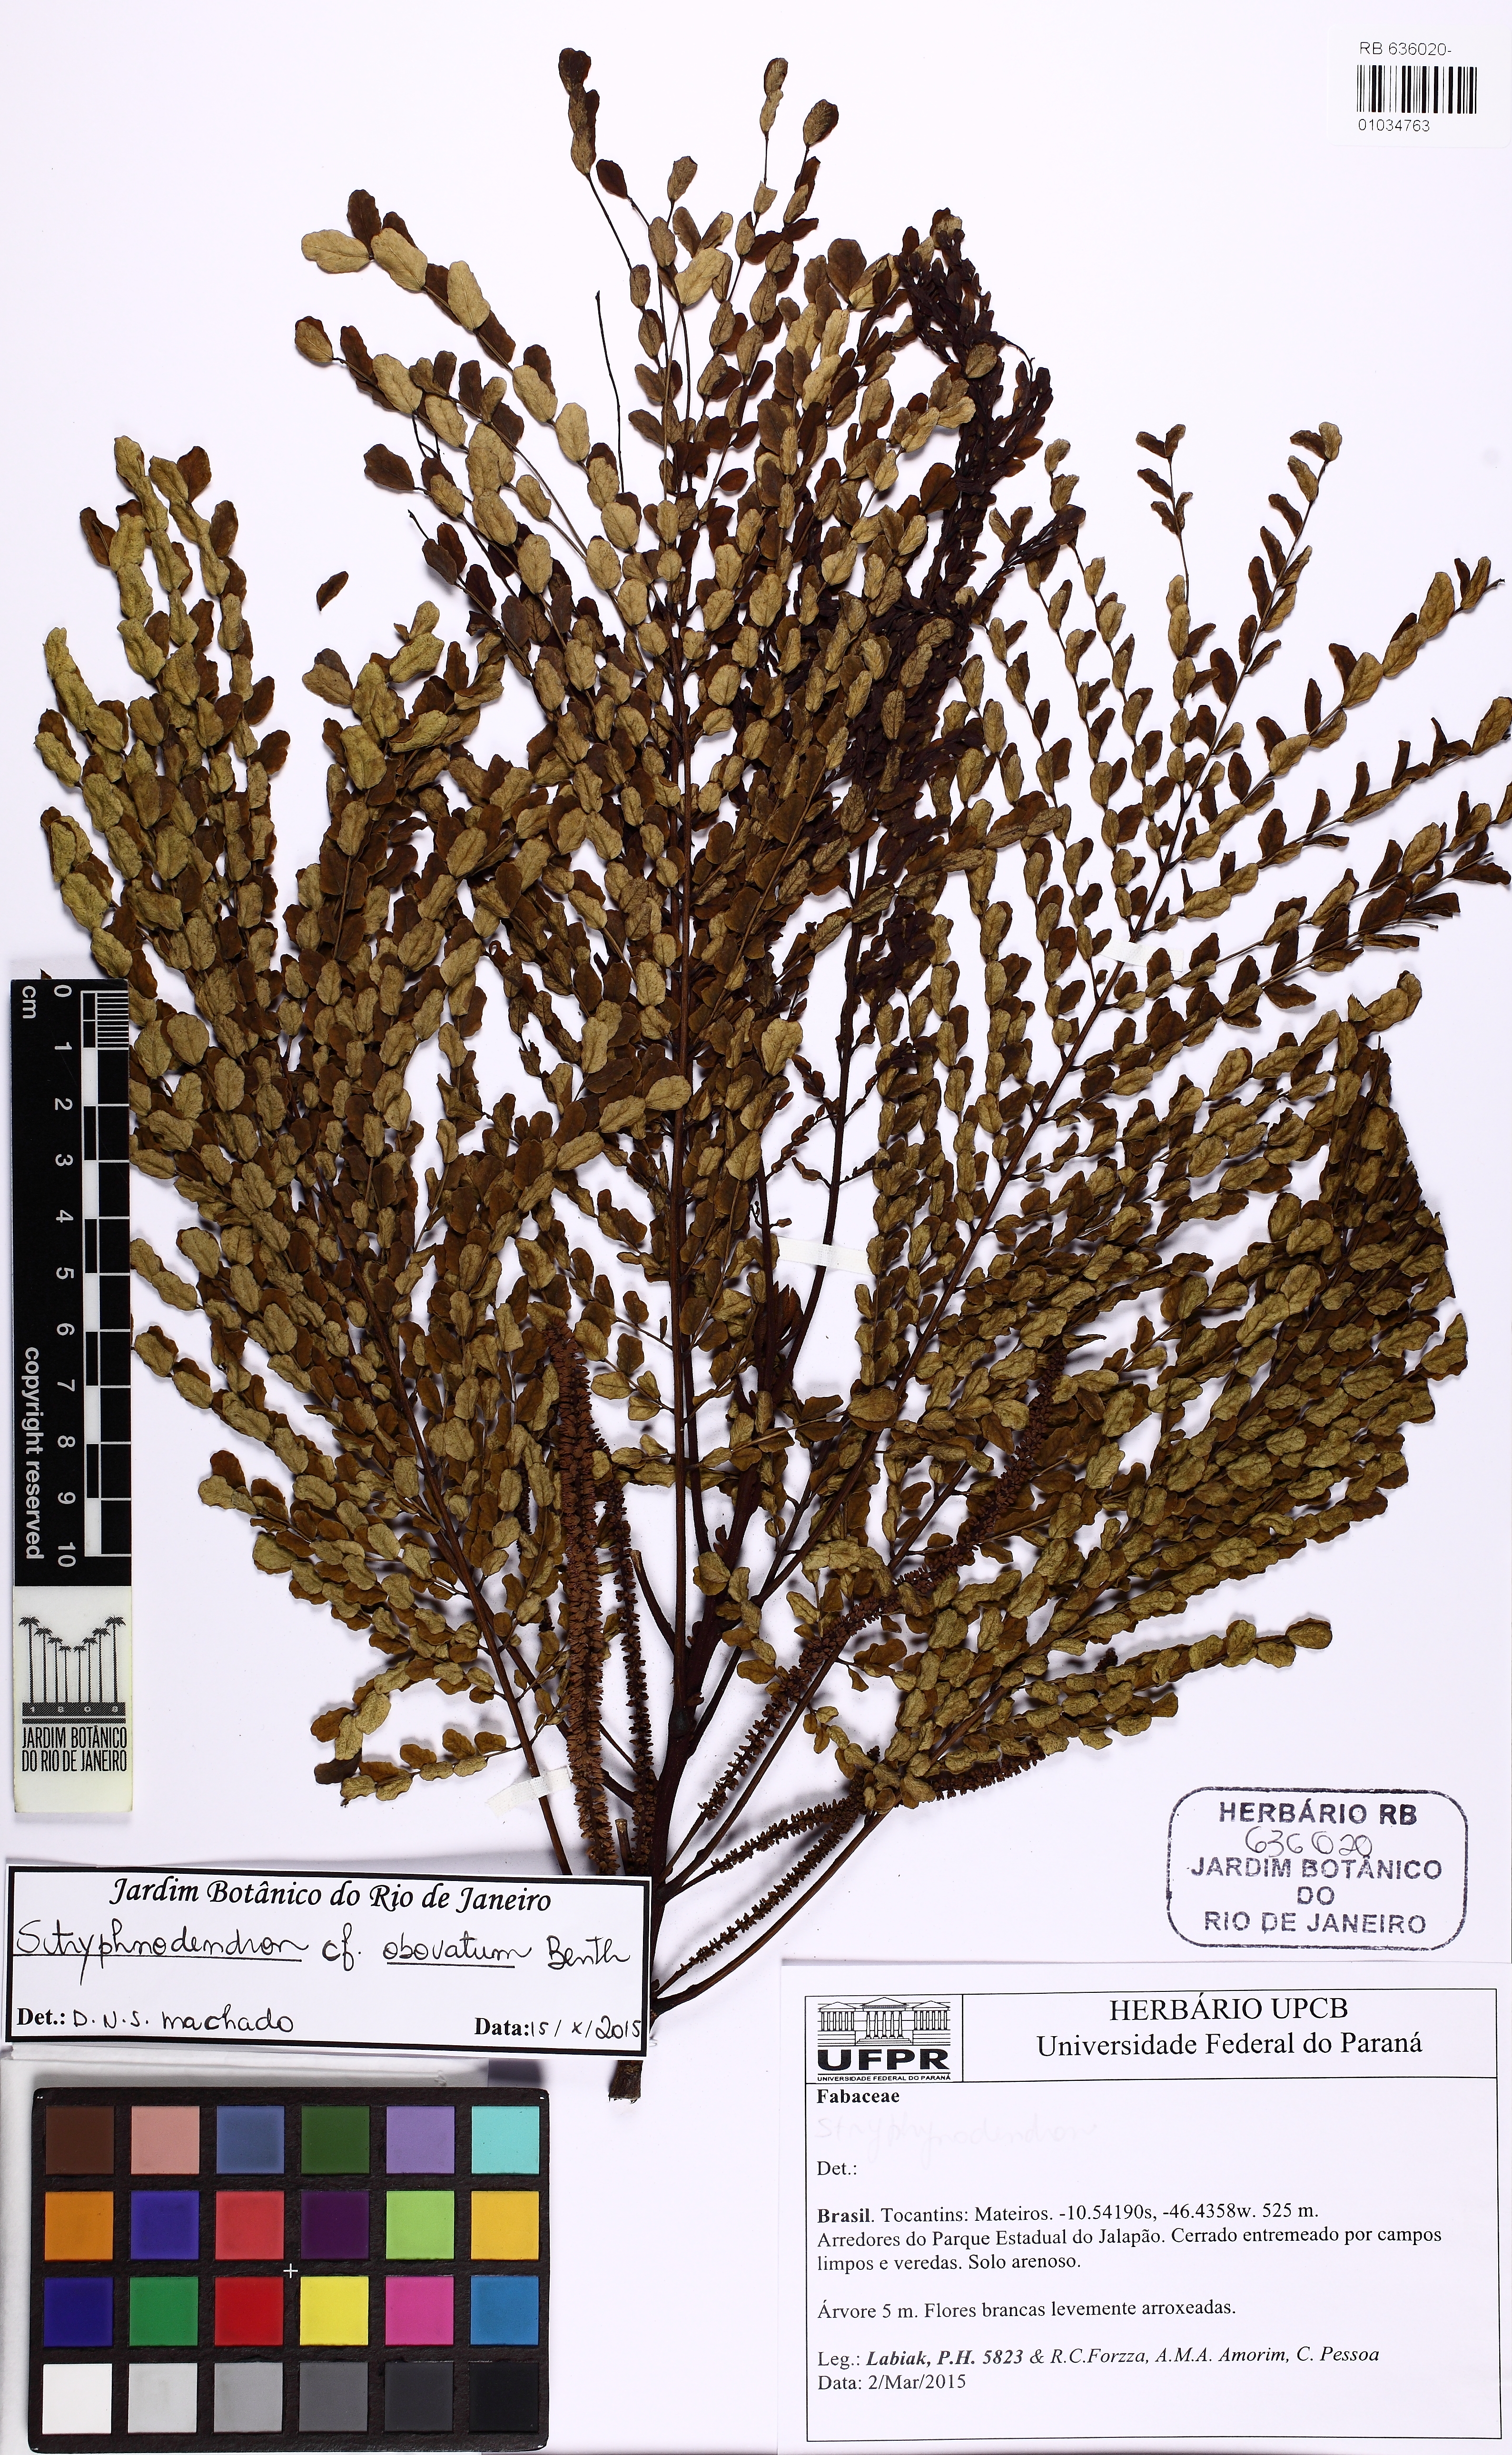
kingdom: Plantae
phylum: Tracheophyta
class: Magnoliopsida
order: Fabales
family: Fabaceae
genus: Stryphnodendron
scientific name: Stryphnodendron rotundifolium
